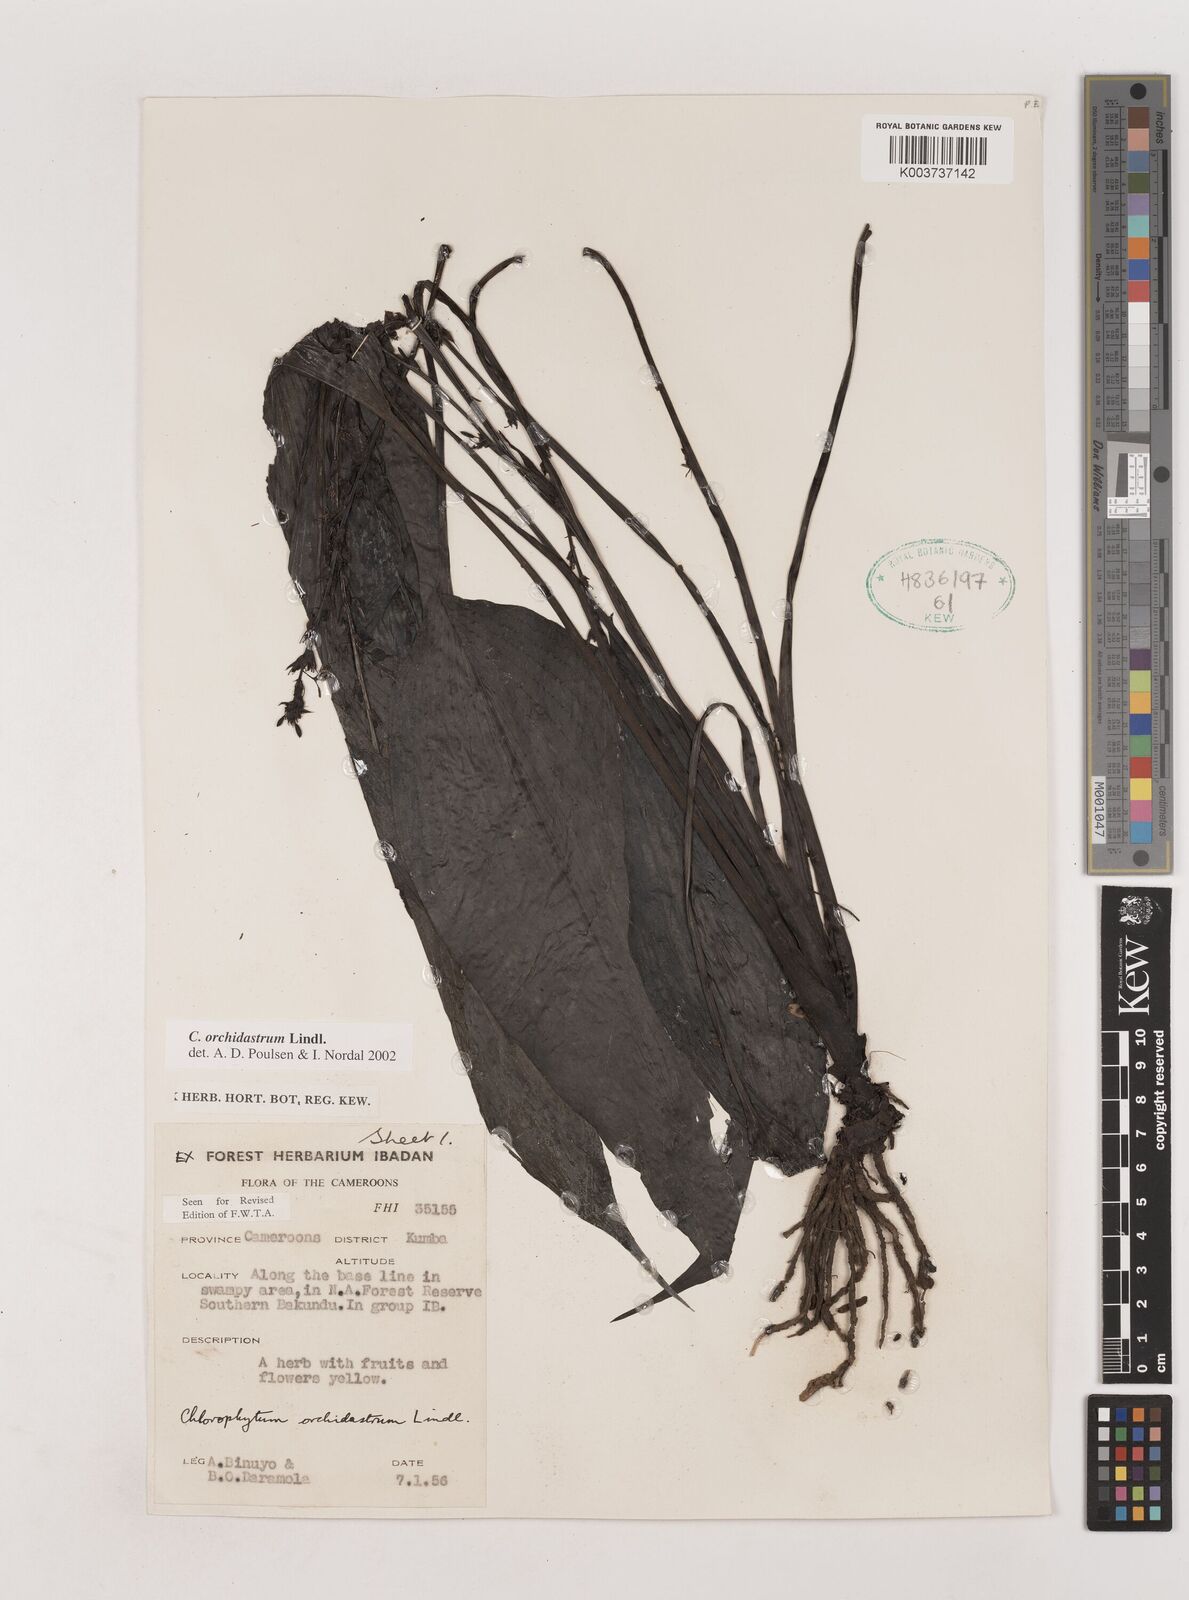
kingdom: Plantae
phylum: Tracheophyta
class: Liliopsida
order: Asparagales
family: Asparagaceae
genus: Chlorophytum
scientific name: Chlorophytum orchidastrum
